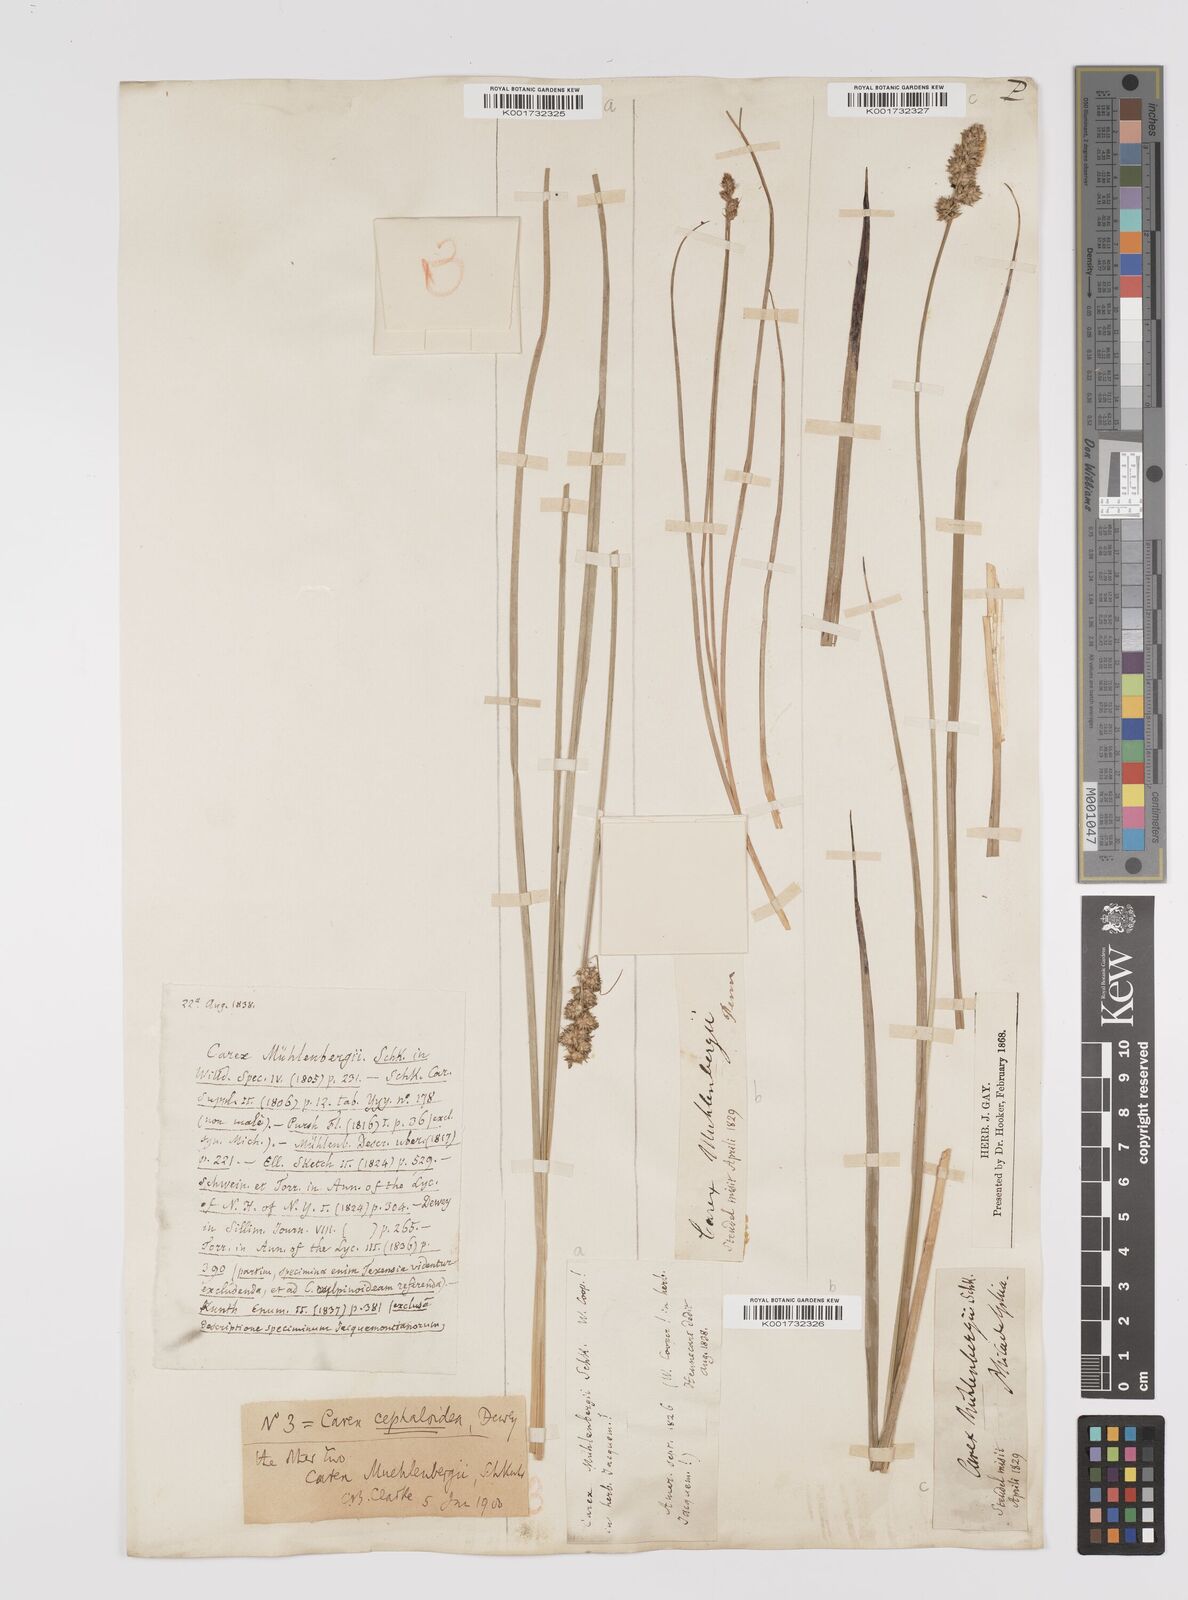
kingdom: Plantae
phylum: Tracheophyta
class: Liliopsida
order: Poales
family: Cyperaceae
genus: Carex
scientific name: Carex vulpinoidea
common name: American fox-sedge
